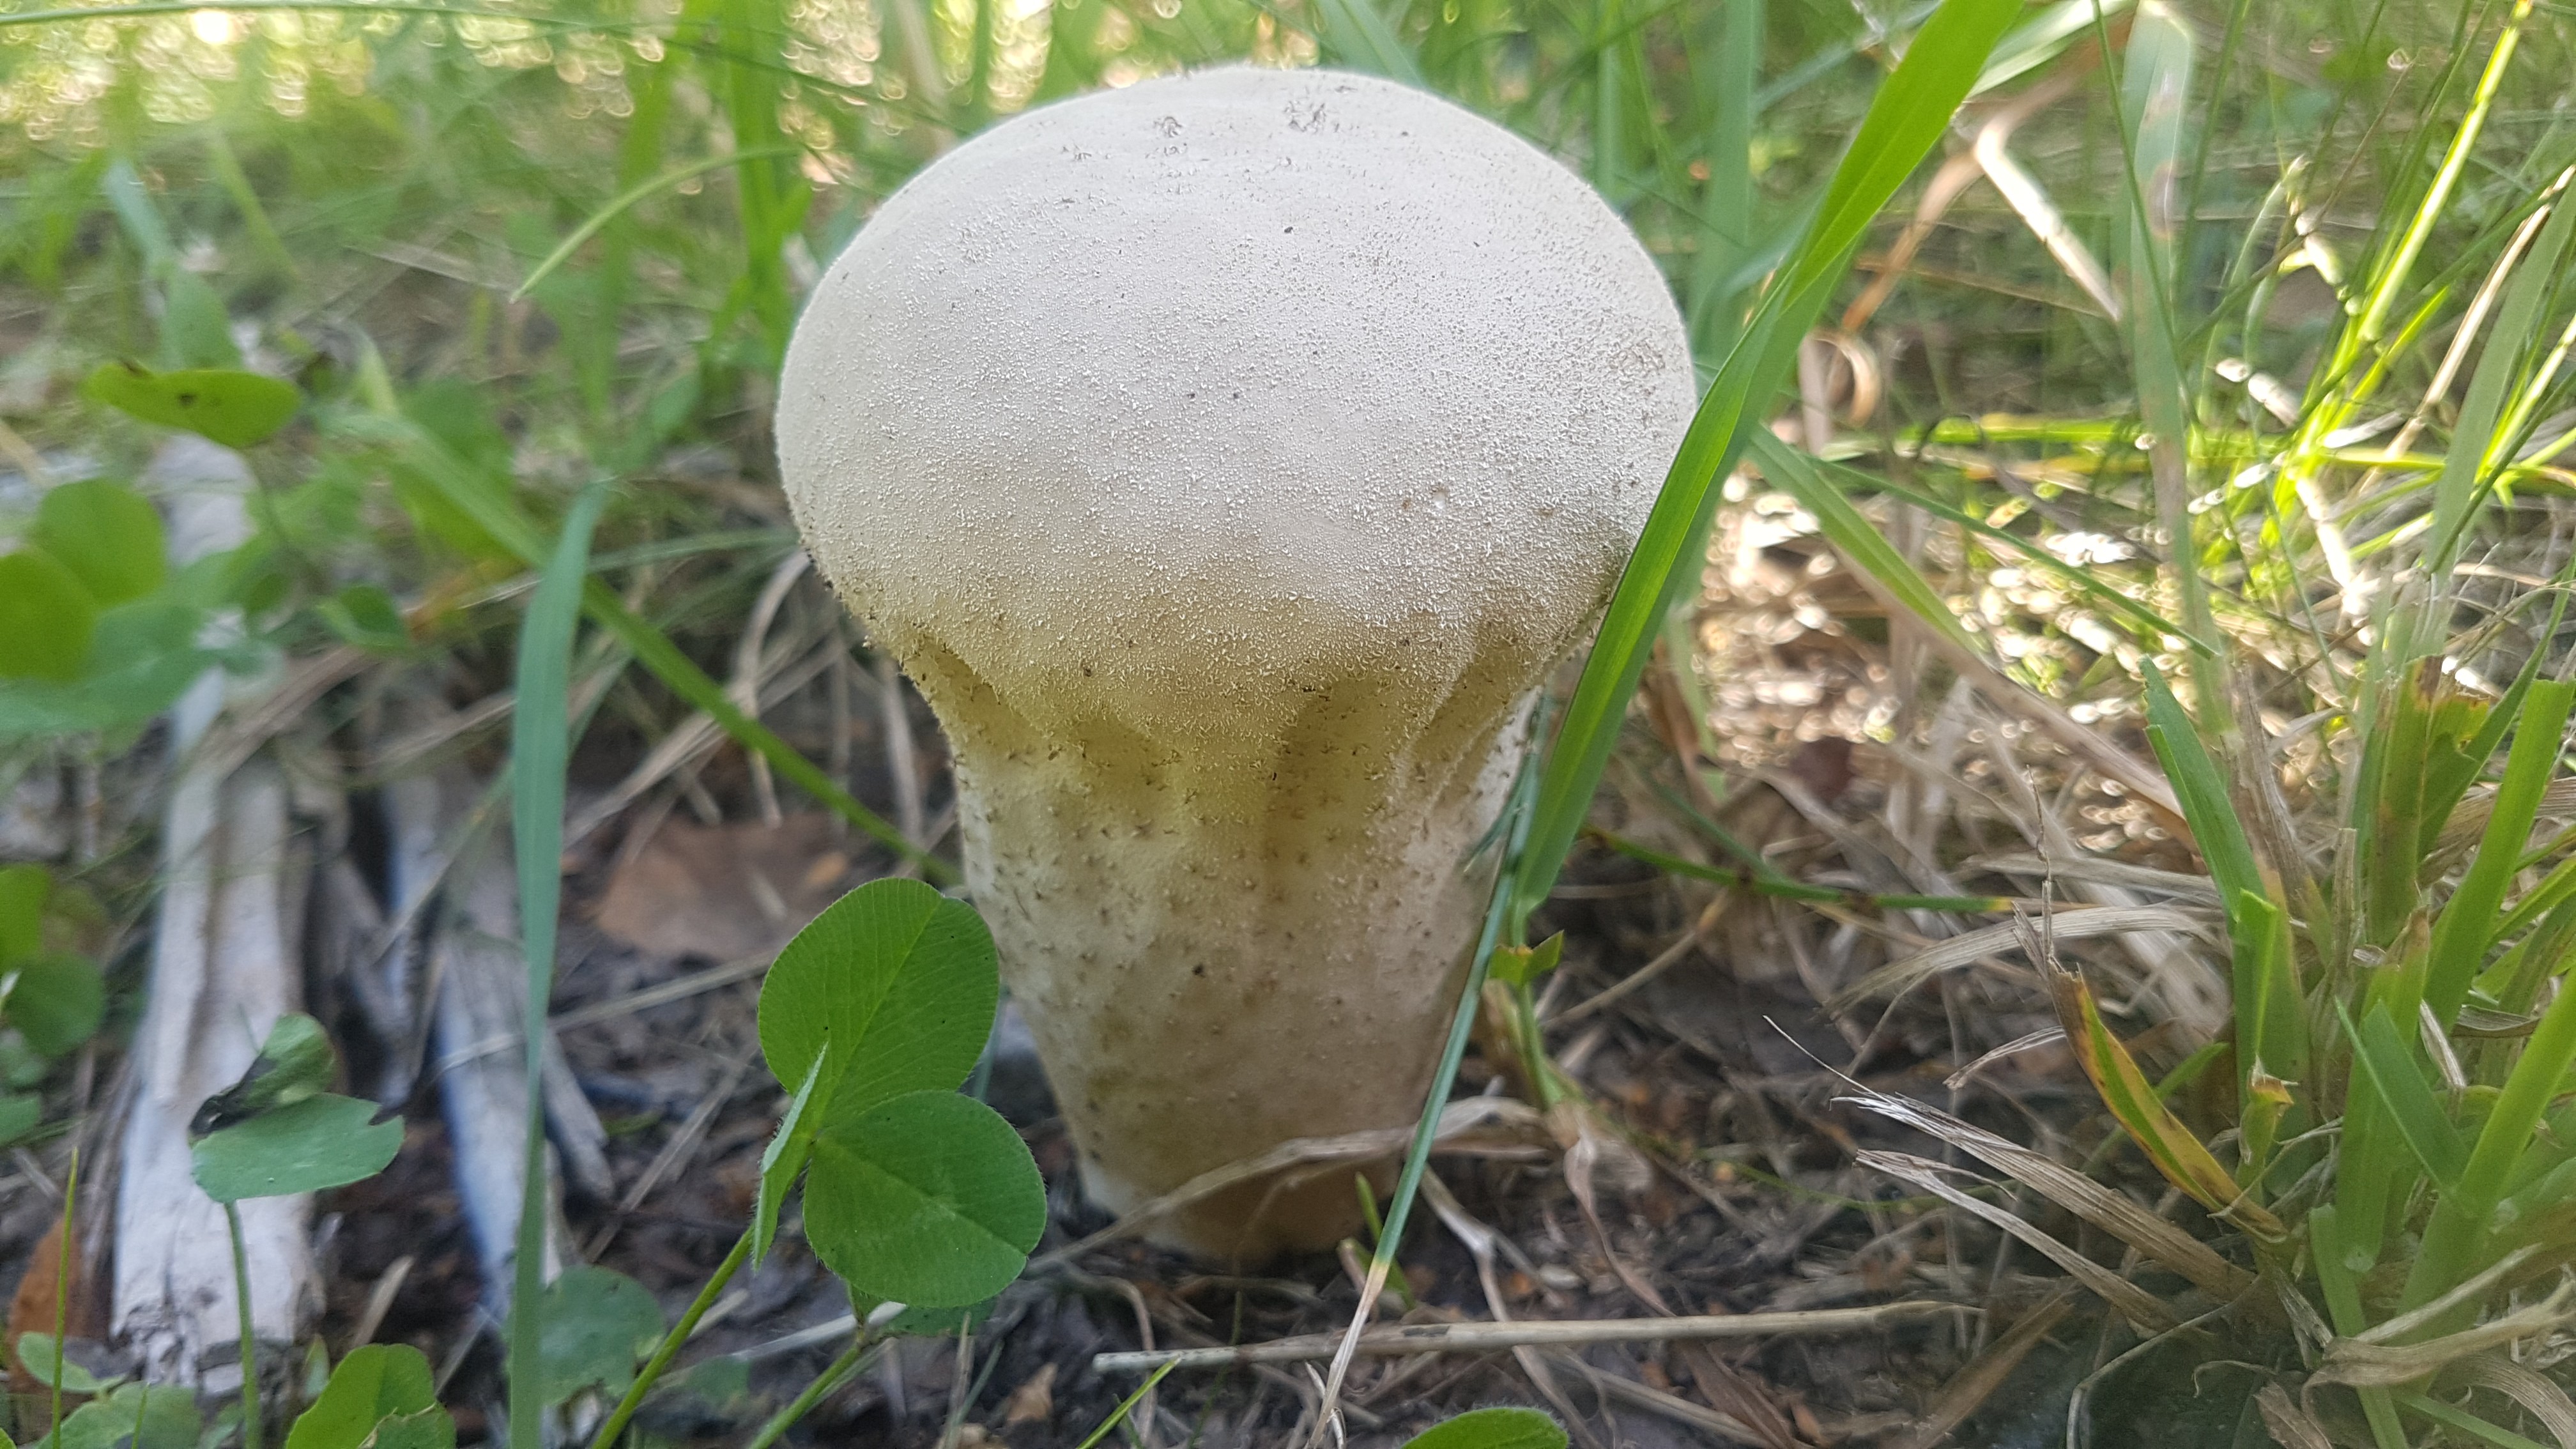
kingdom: Fungi
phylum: Basidiomycota
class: Agaricomycetes
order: Agaricales
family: Lycoperdaceae
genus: Lycoperdon
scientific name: Lycoperdon excipuliforme
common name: højstokket støvbold
